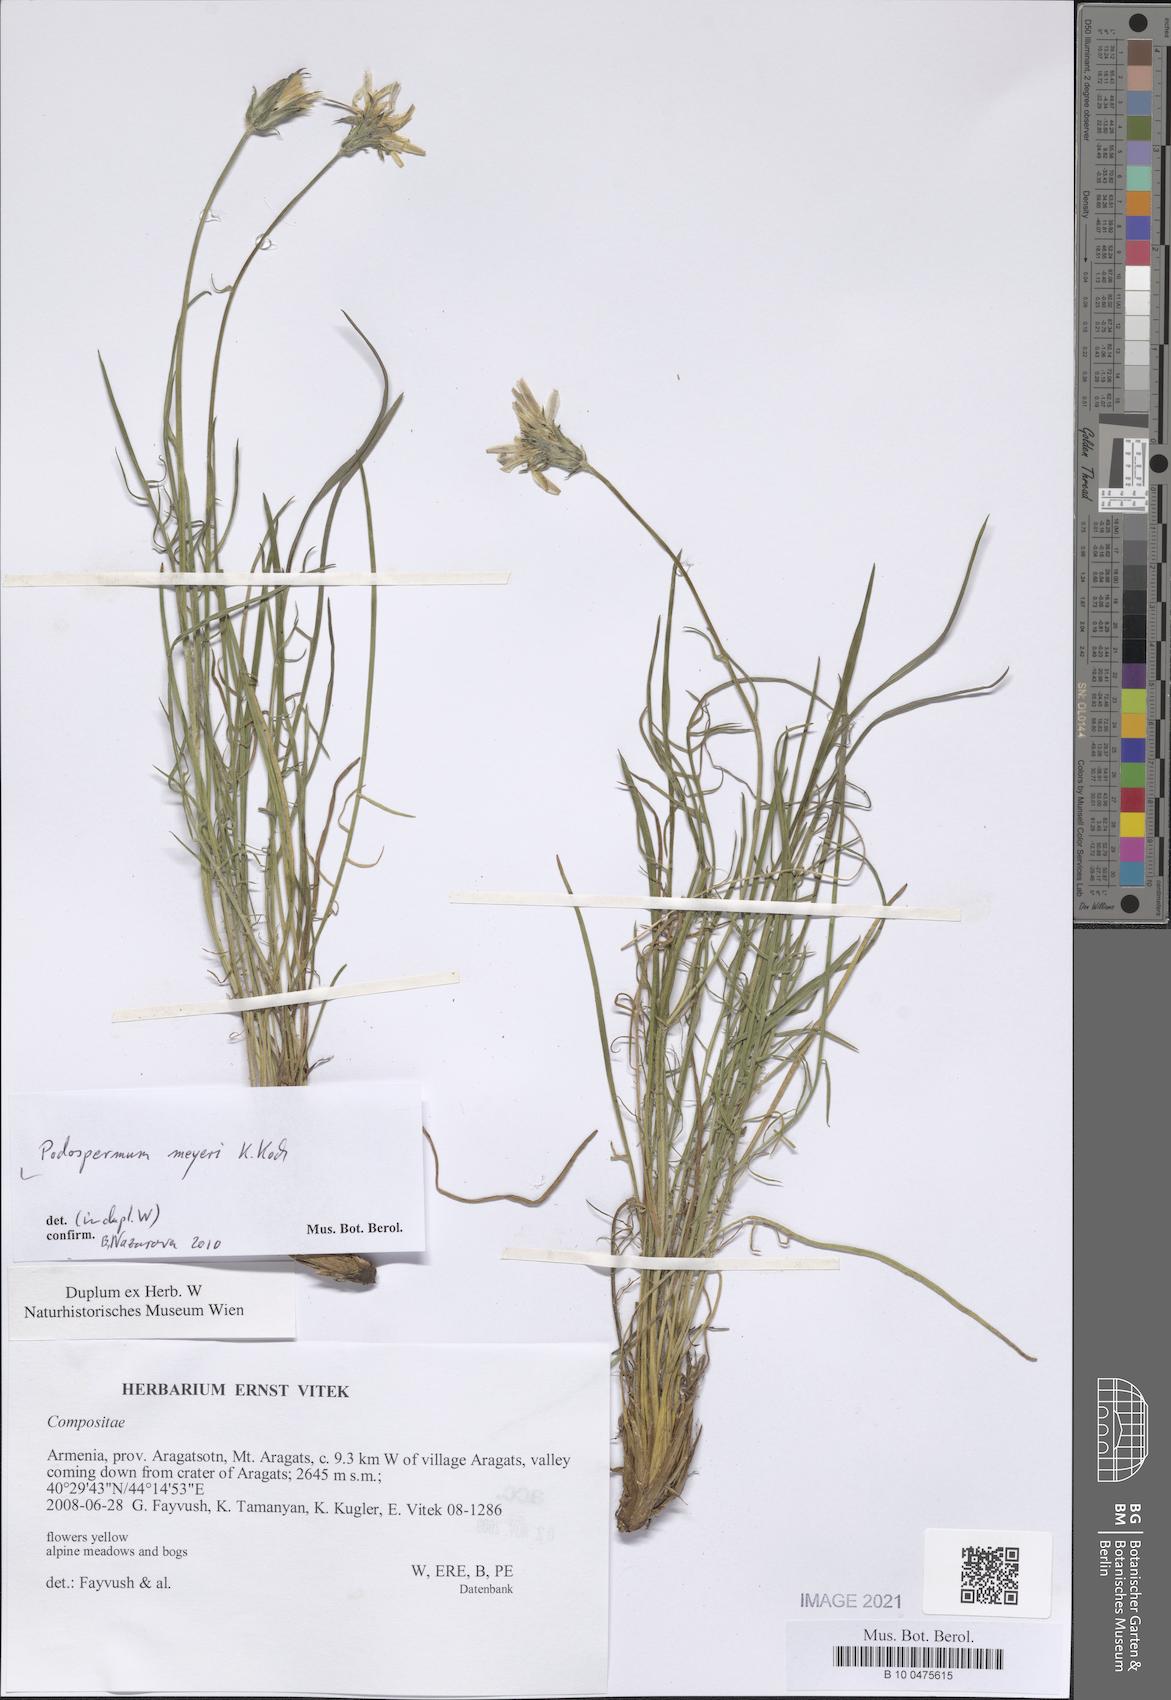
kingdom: Plantae
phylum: Tracheophyta
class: Magnoliopsida
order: Asterales
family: Asteraceae
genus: Scorzonera
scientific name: Scorzonera meyeri
